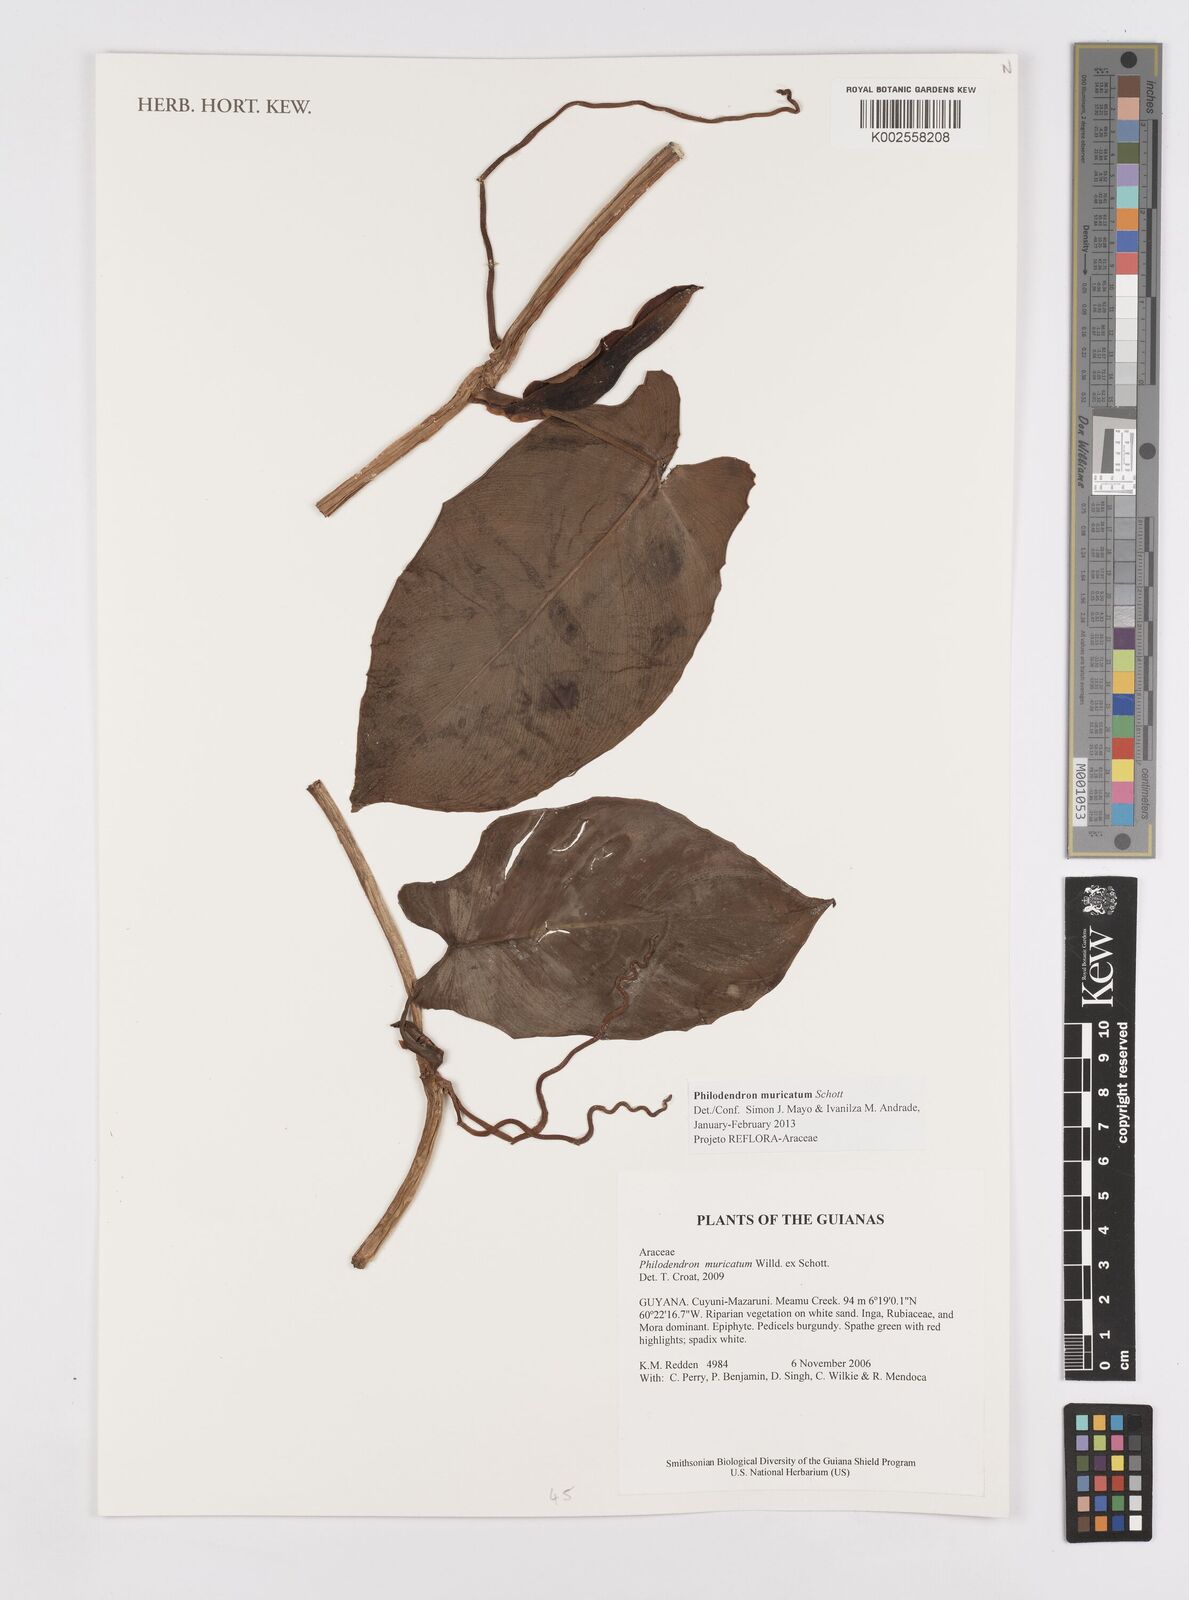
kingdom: Plantae
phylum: Tracheophyta
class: Liliopsida
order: Alismatales
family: Araceae
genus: Philodendron
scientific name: Philodendron muricatum
